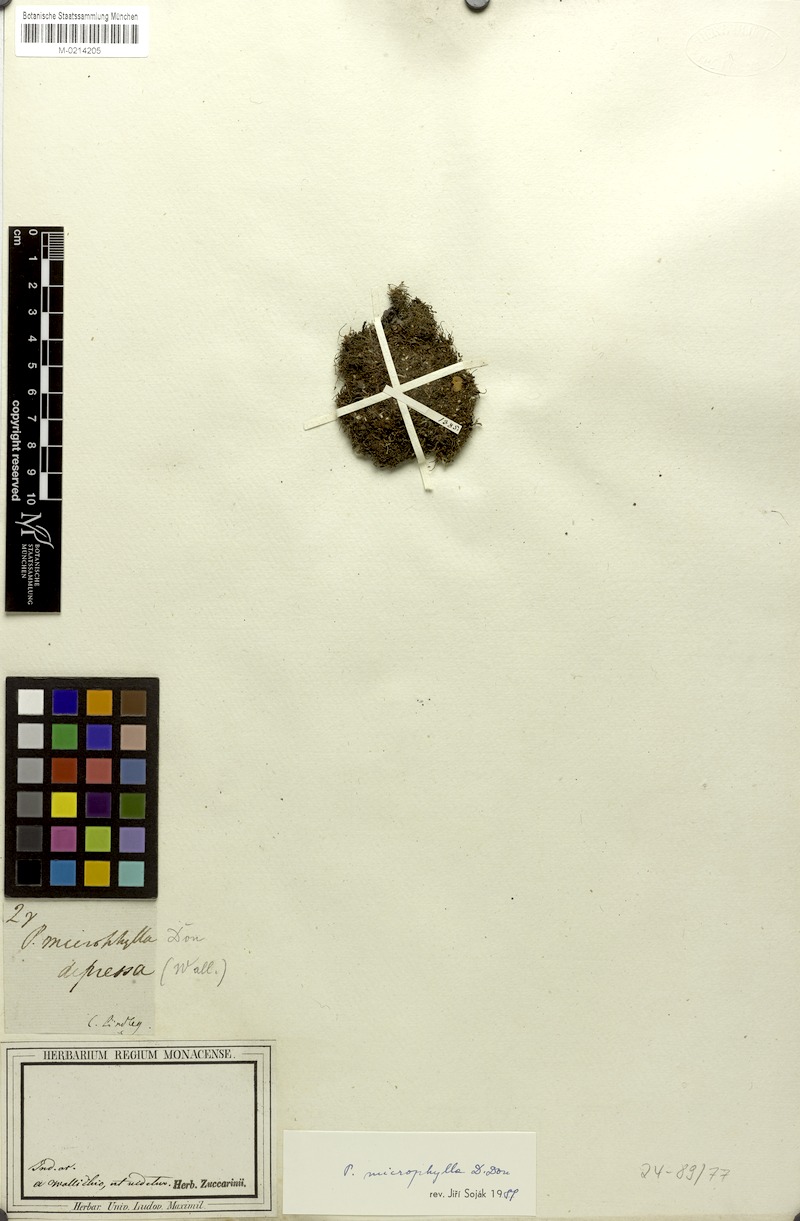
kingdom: Plantae
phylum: Tracheophyta
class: Magnoliopsida
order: Rosales
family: Rosaceae
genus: Argentina
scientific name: Argentina microphylla
